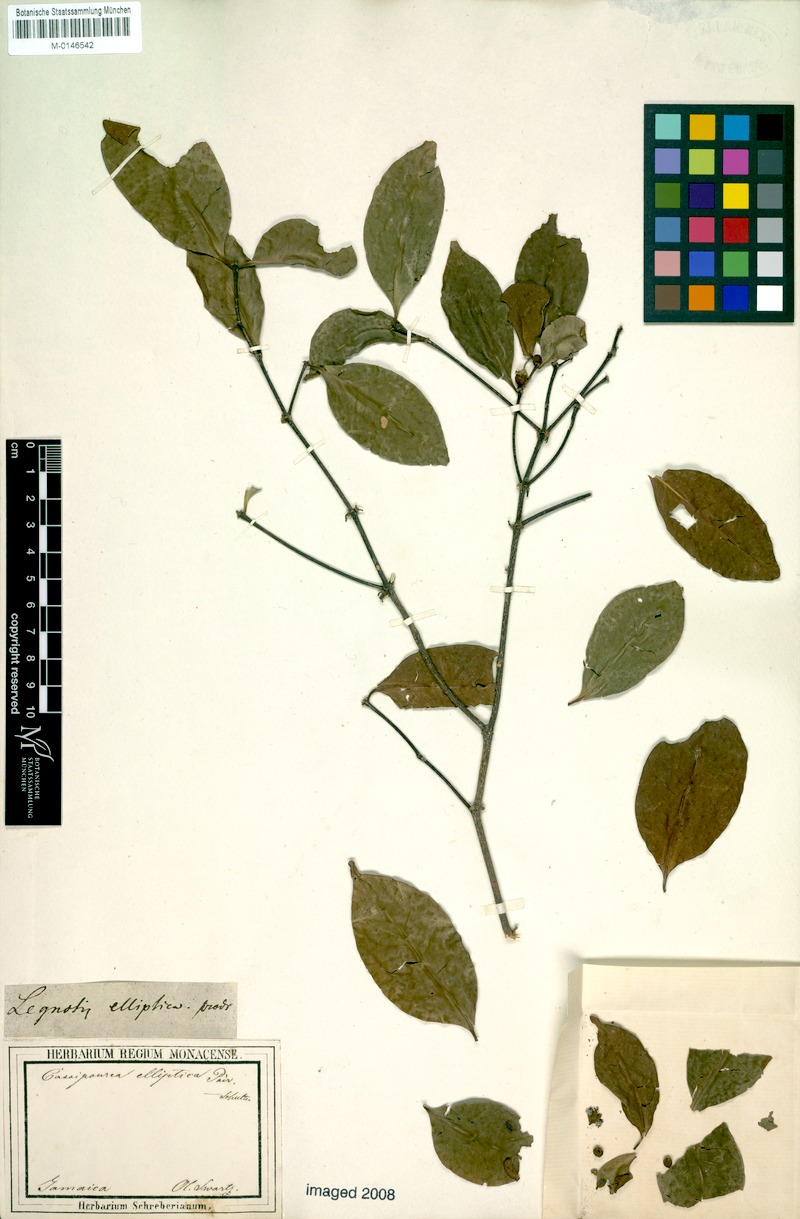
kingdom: Plantae
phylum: Tracheophyta
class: Magnoliopsida
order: Malpighiales
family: Rhizophoraceae
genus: Cassipourea
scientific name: Cassipourea elliptica
